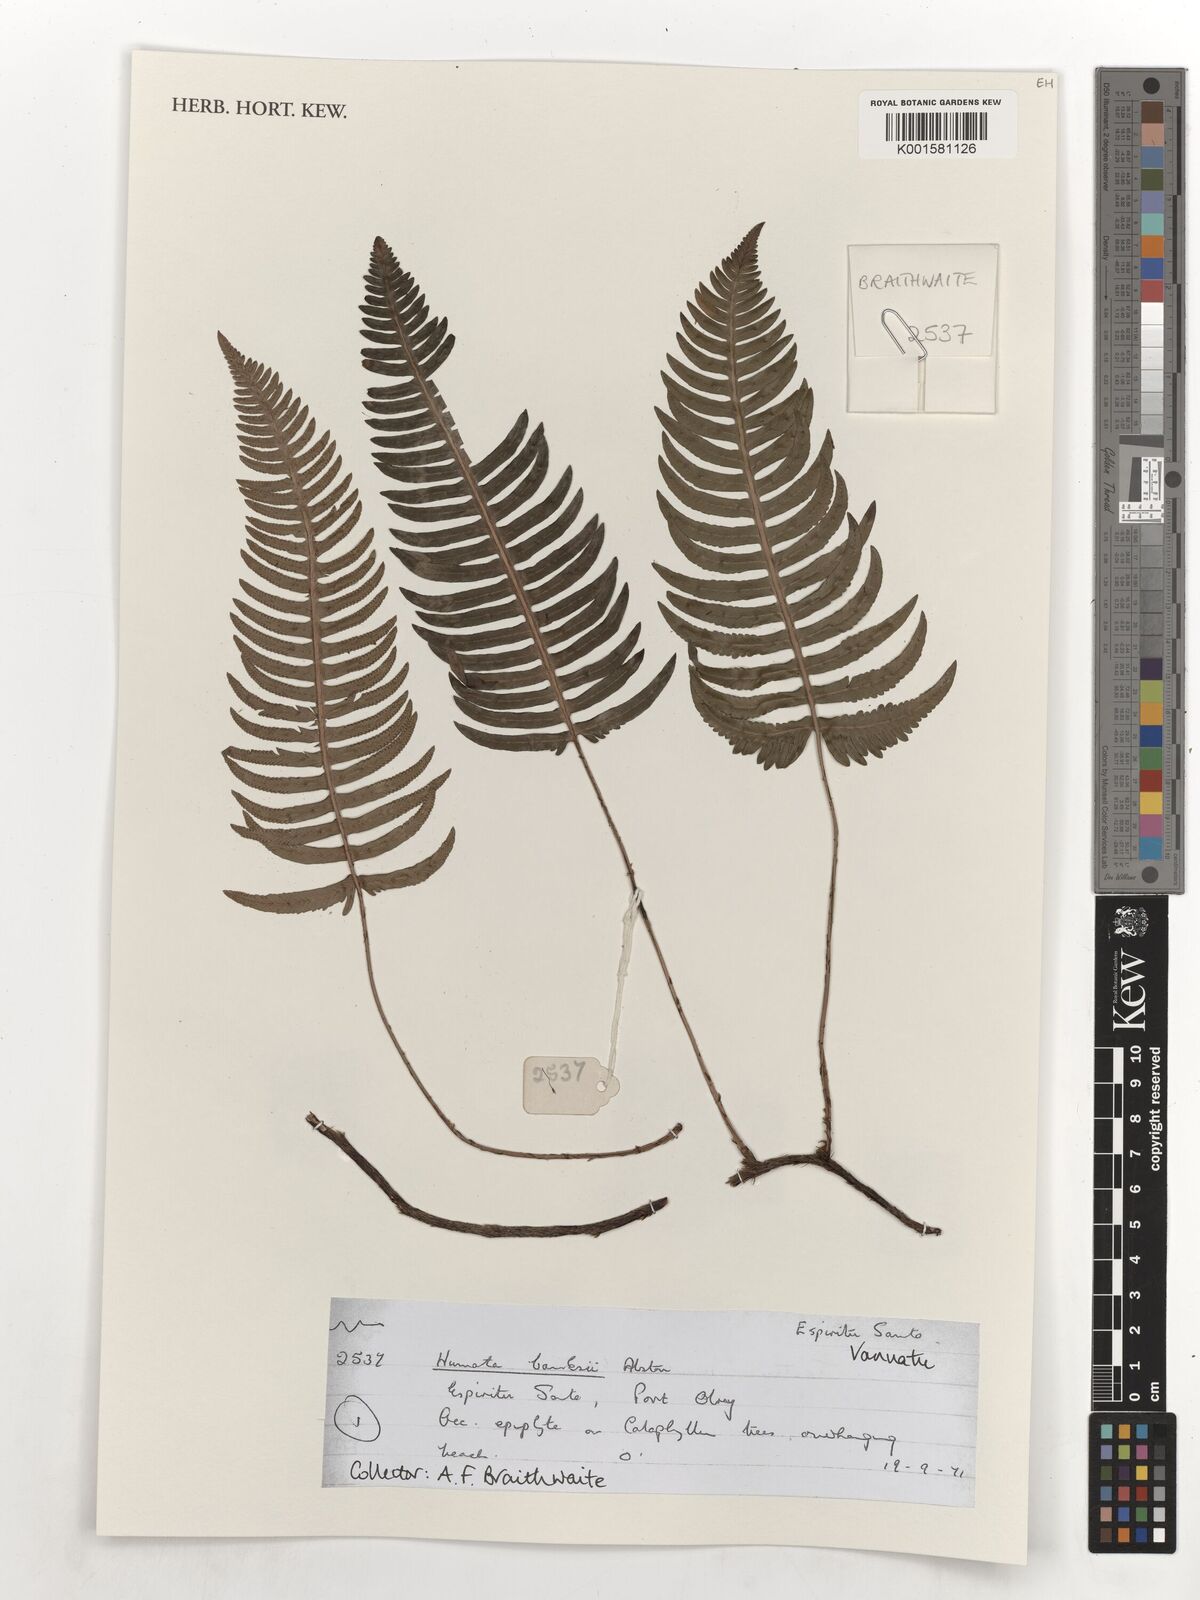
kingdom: Plantae
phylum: Tracheophyta
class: Polypodiopsida
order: Polypodiales
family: Davalliaceae
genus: Davallia
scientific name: Davallia pectinata
